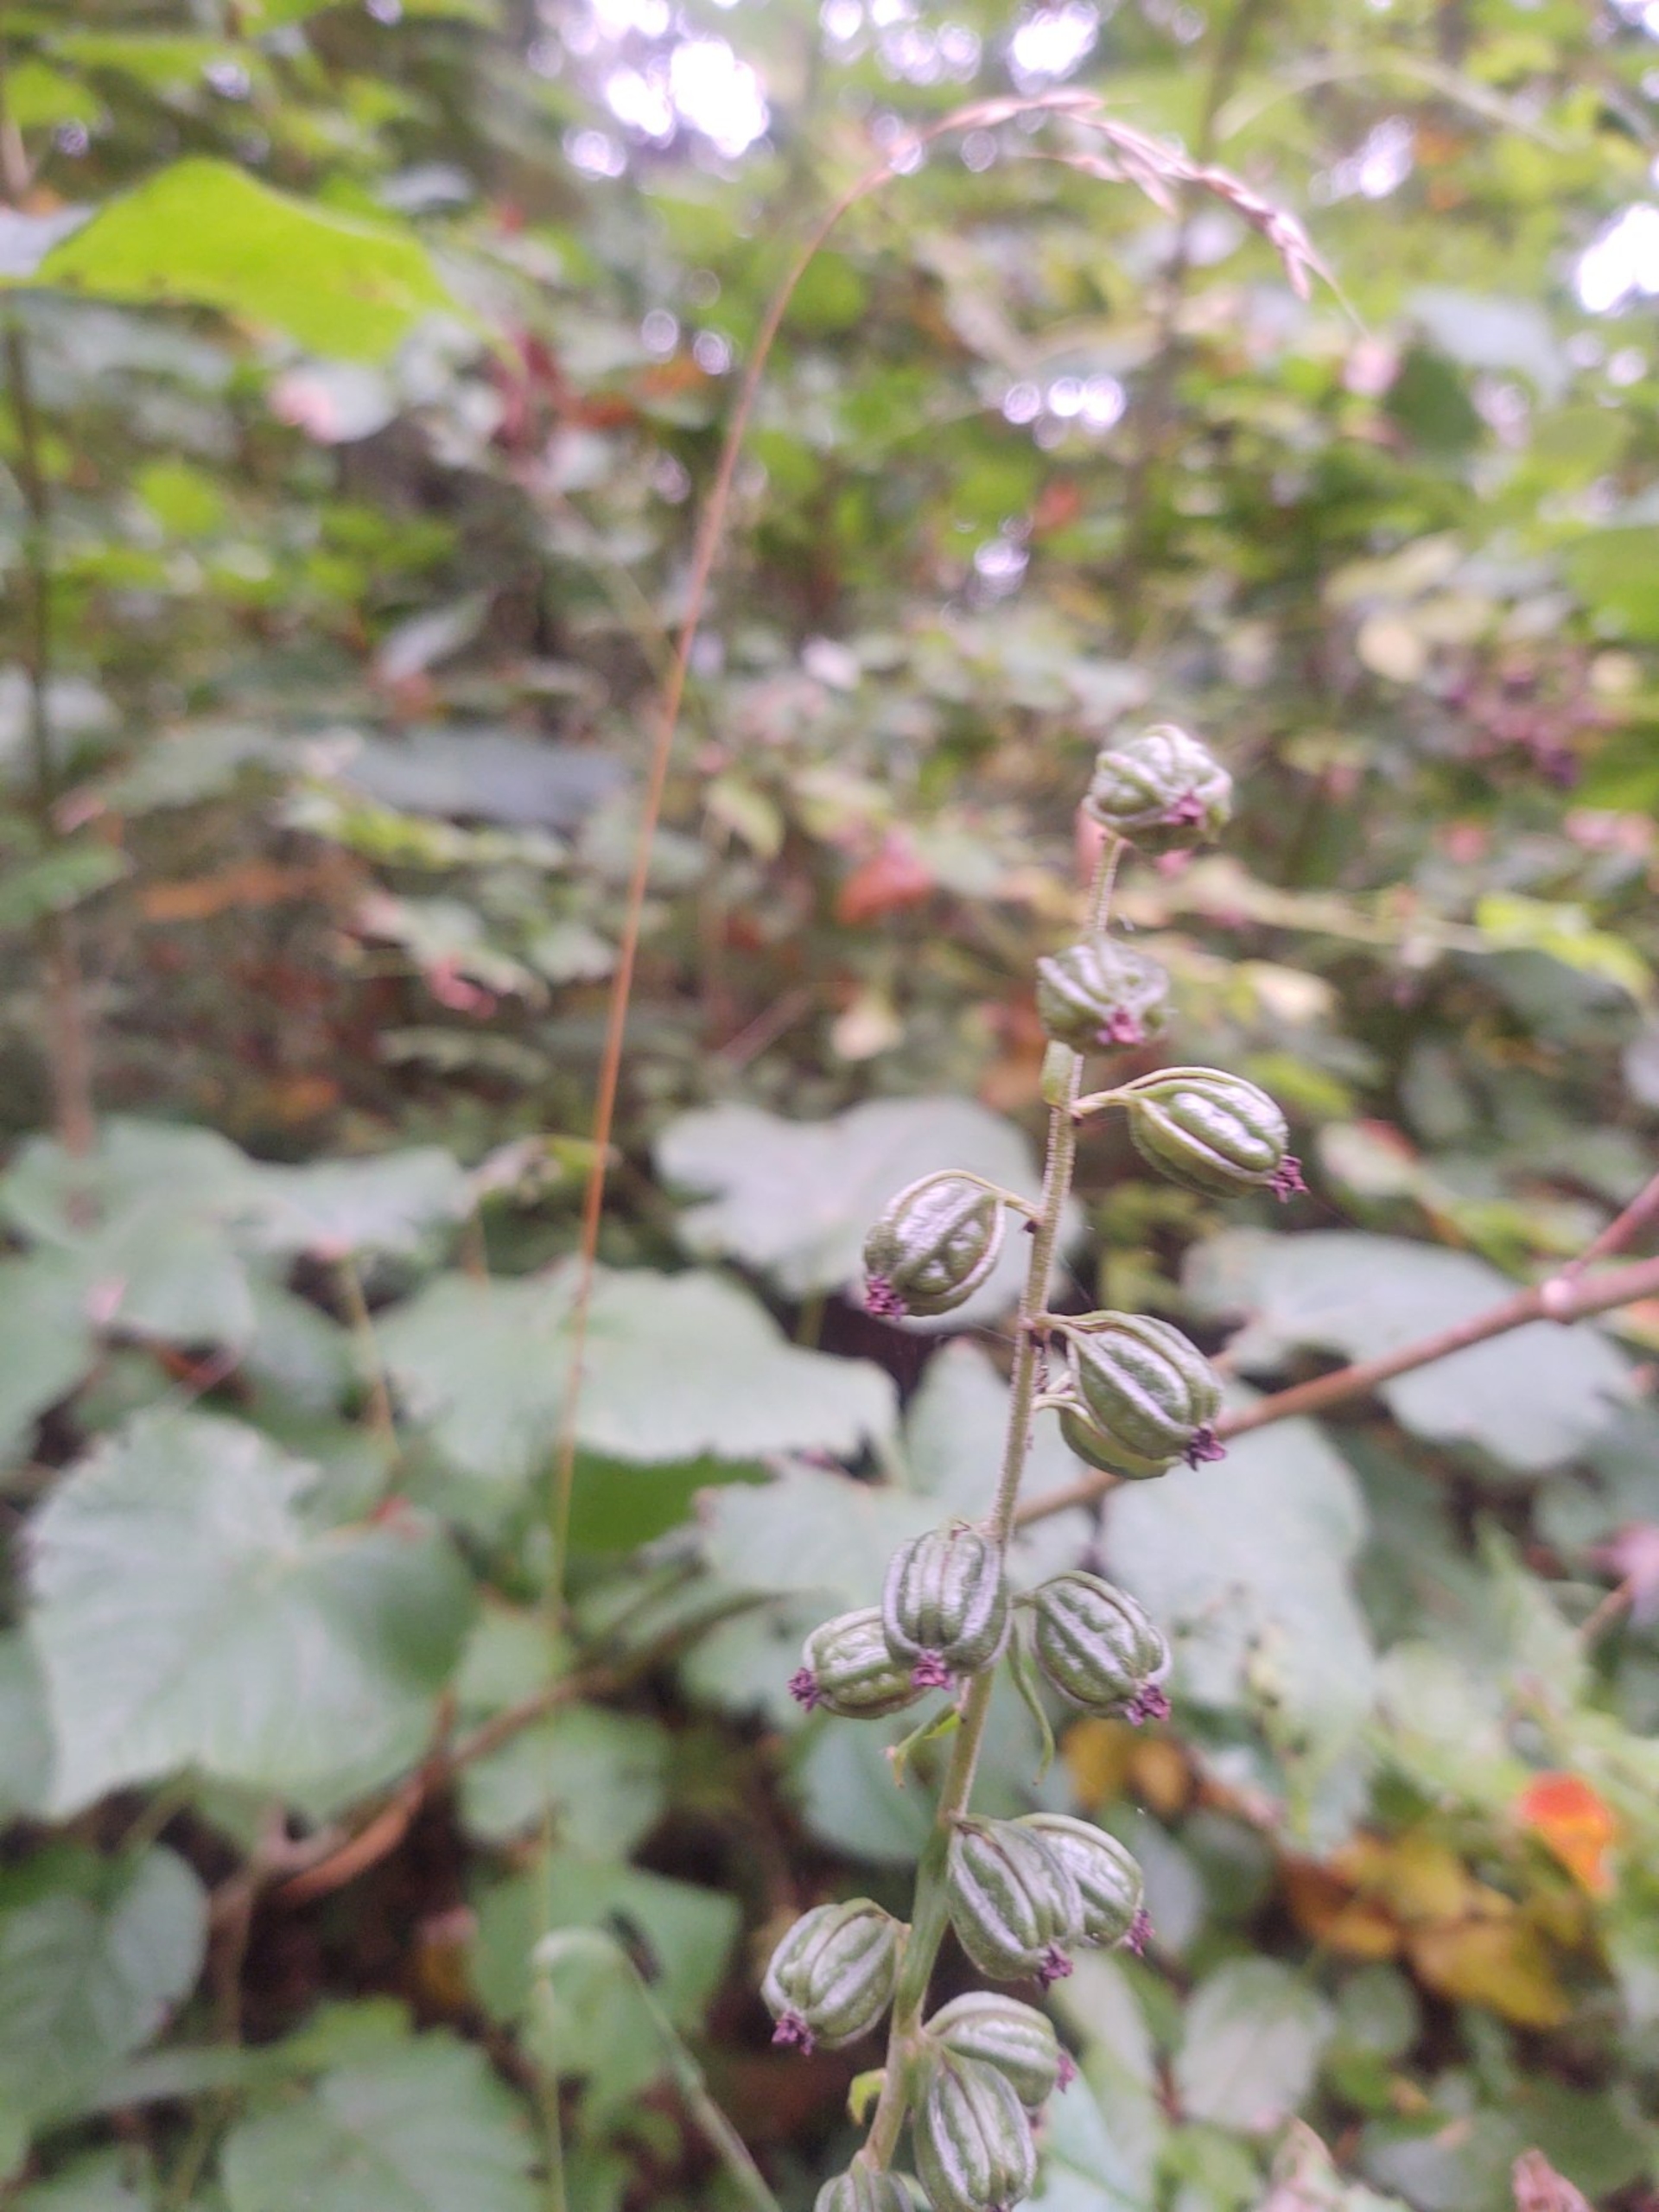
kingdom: Plantae
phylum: Tracheophyta
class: Liliopsida
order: Asparagales
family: Orchidaceae
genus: Epipactis
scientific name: Epipactis helleborine
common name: Skov-hullæbe
